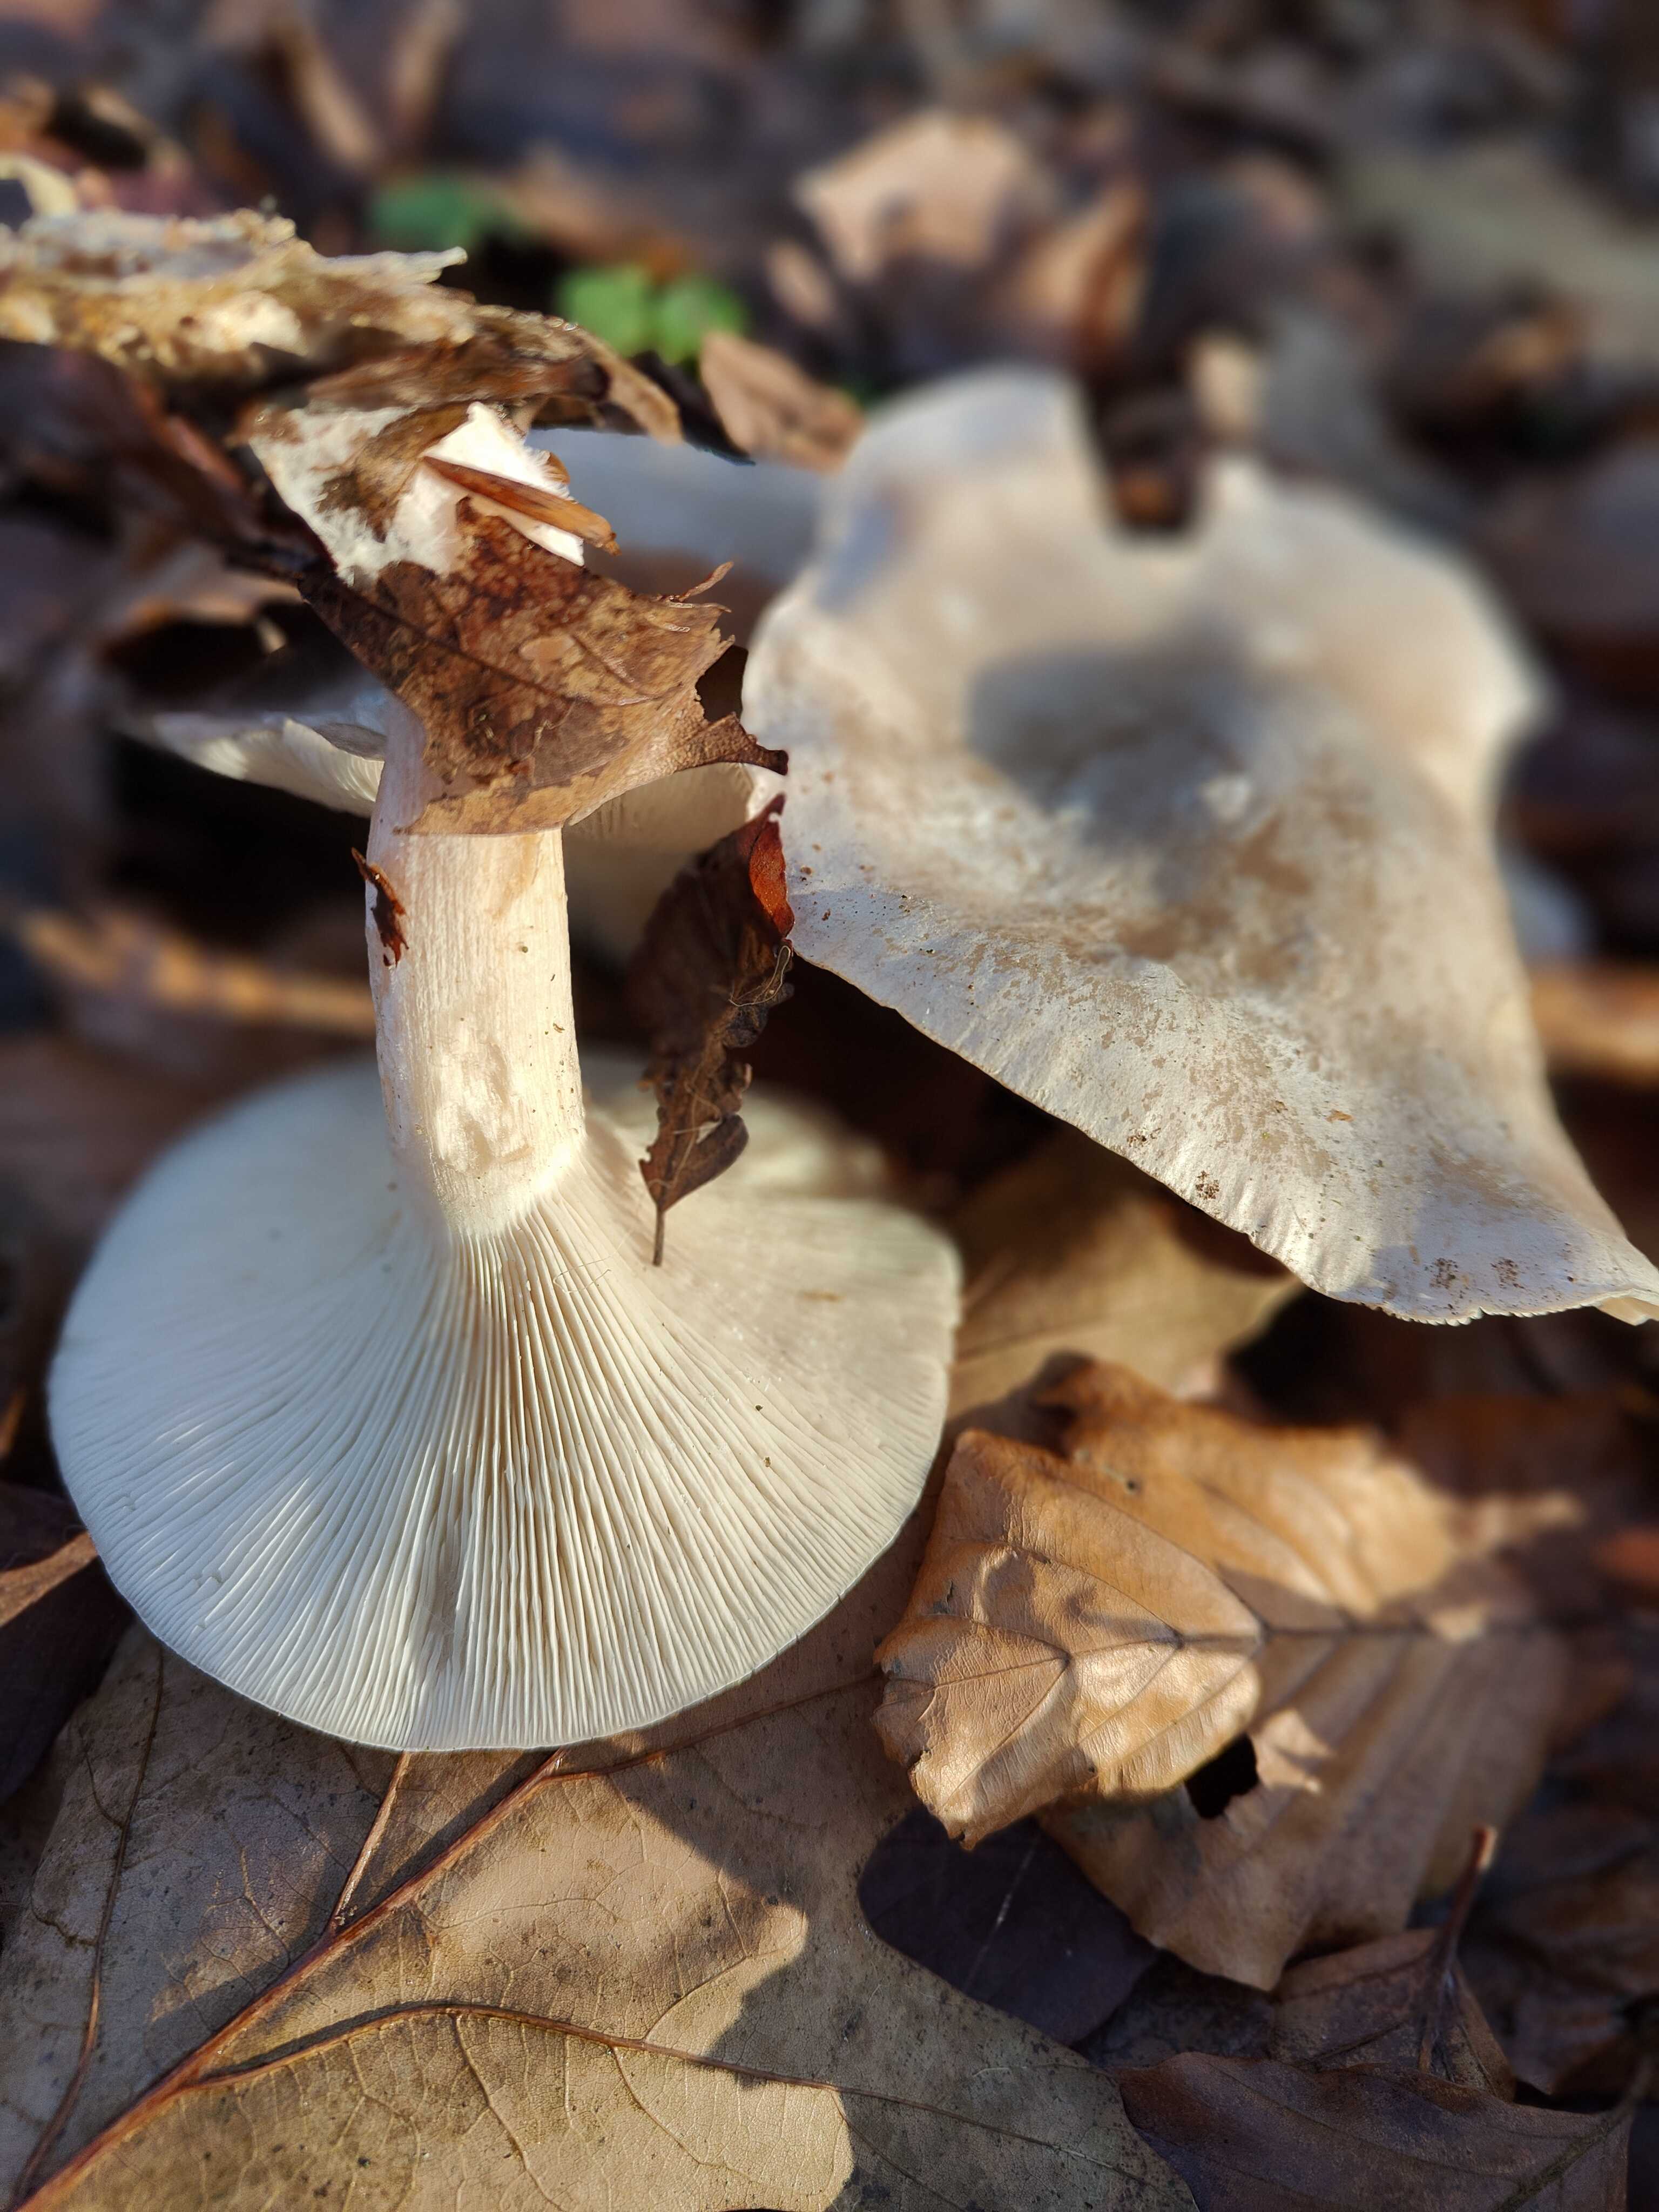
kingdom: Fungi
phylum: Basidiomycota
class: Agaricomycetes
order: Agaricales
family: Tricholomataceae
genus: Clitocybe
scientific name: Clitocybe nebularis
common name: tåge-tragthat
